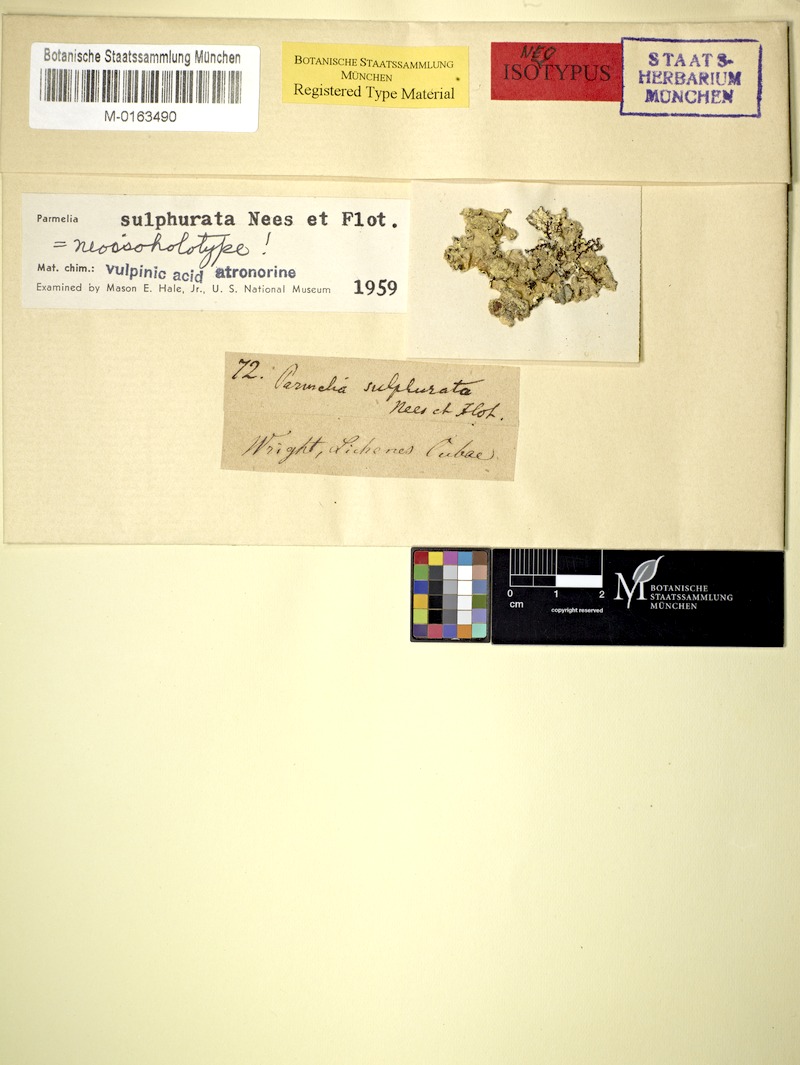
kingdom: Fungi
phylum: Ascomycota
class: Lecanoromycetes
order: Lecanorales
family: Parmeliaceae
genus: Parmotrema
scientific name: Parmotrema sulphuratum
